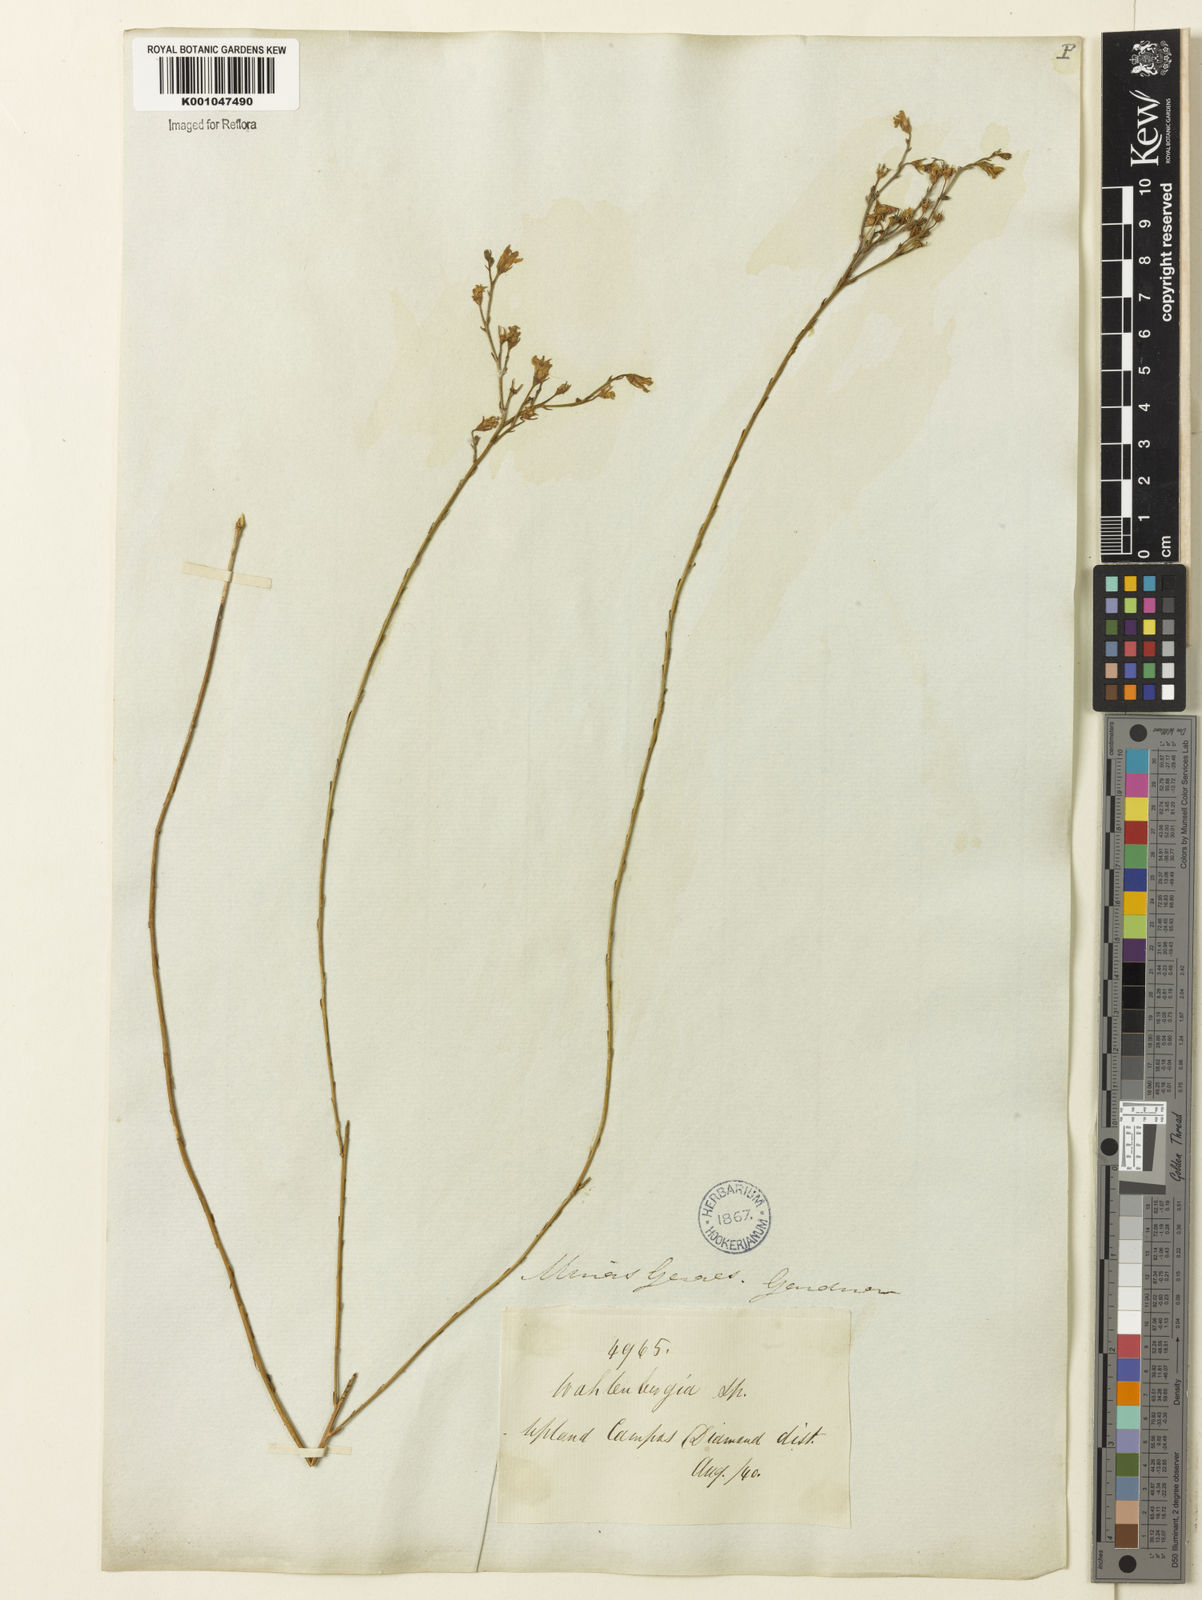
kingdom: Plantae
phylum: Tracheophyta
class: Magnoliopsida
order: Asterales
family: Campanulaceae
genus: Wahlenbergia
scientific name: Wahlenbergia brasiliensis
